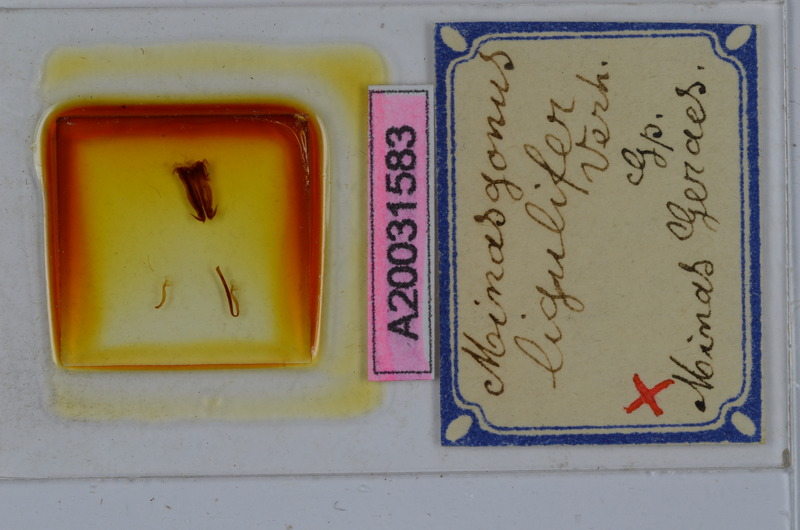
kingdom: Animalia
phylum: Arthropoda
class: Diplopoda
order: Spirostreptida
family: Spirostreptidae
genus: Orthoporus
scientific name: Orthoporus ligulifer
